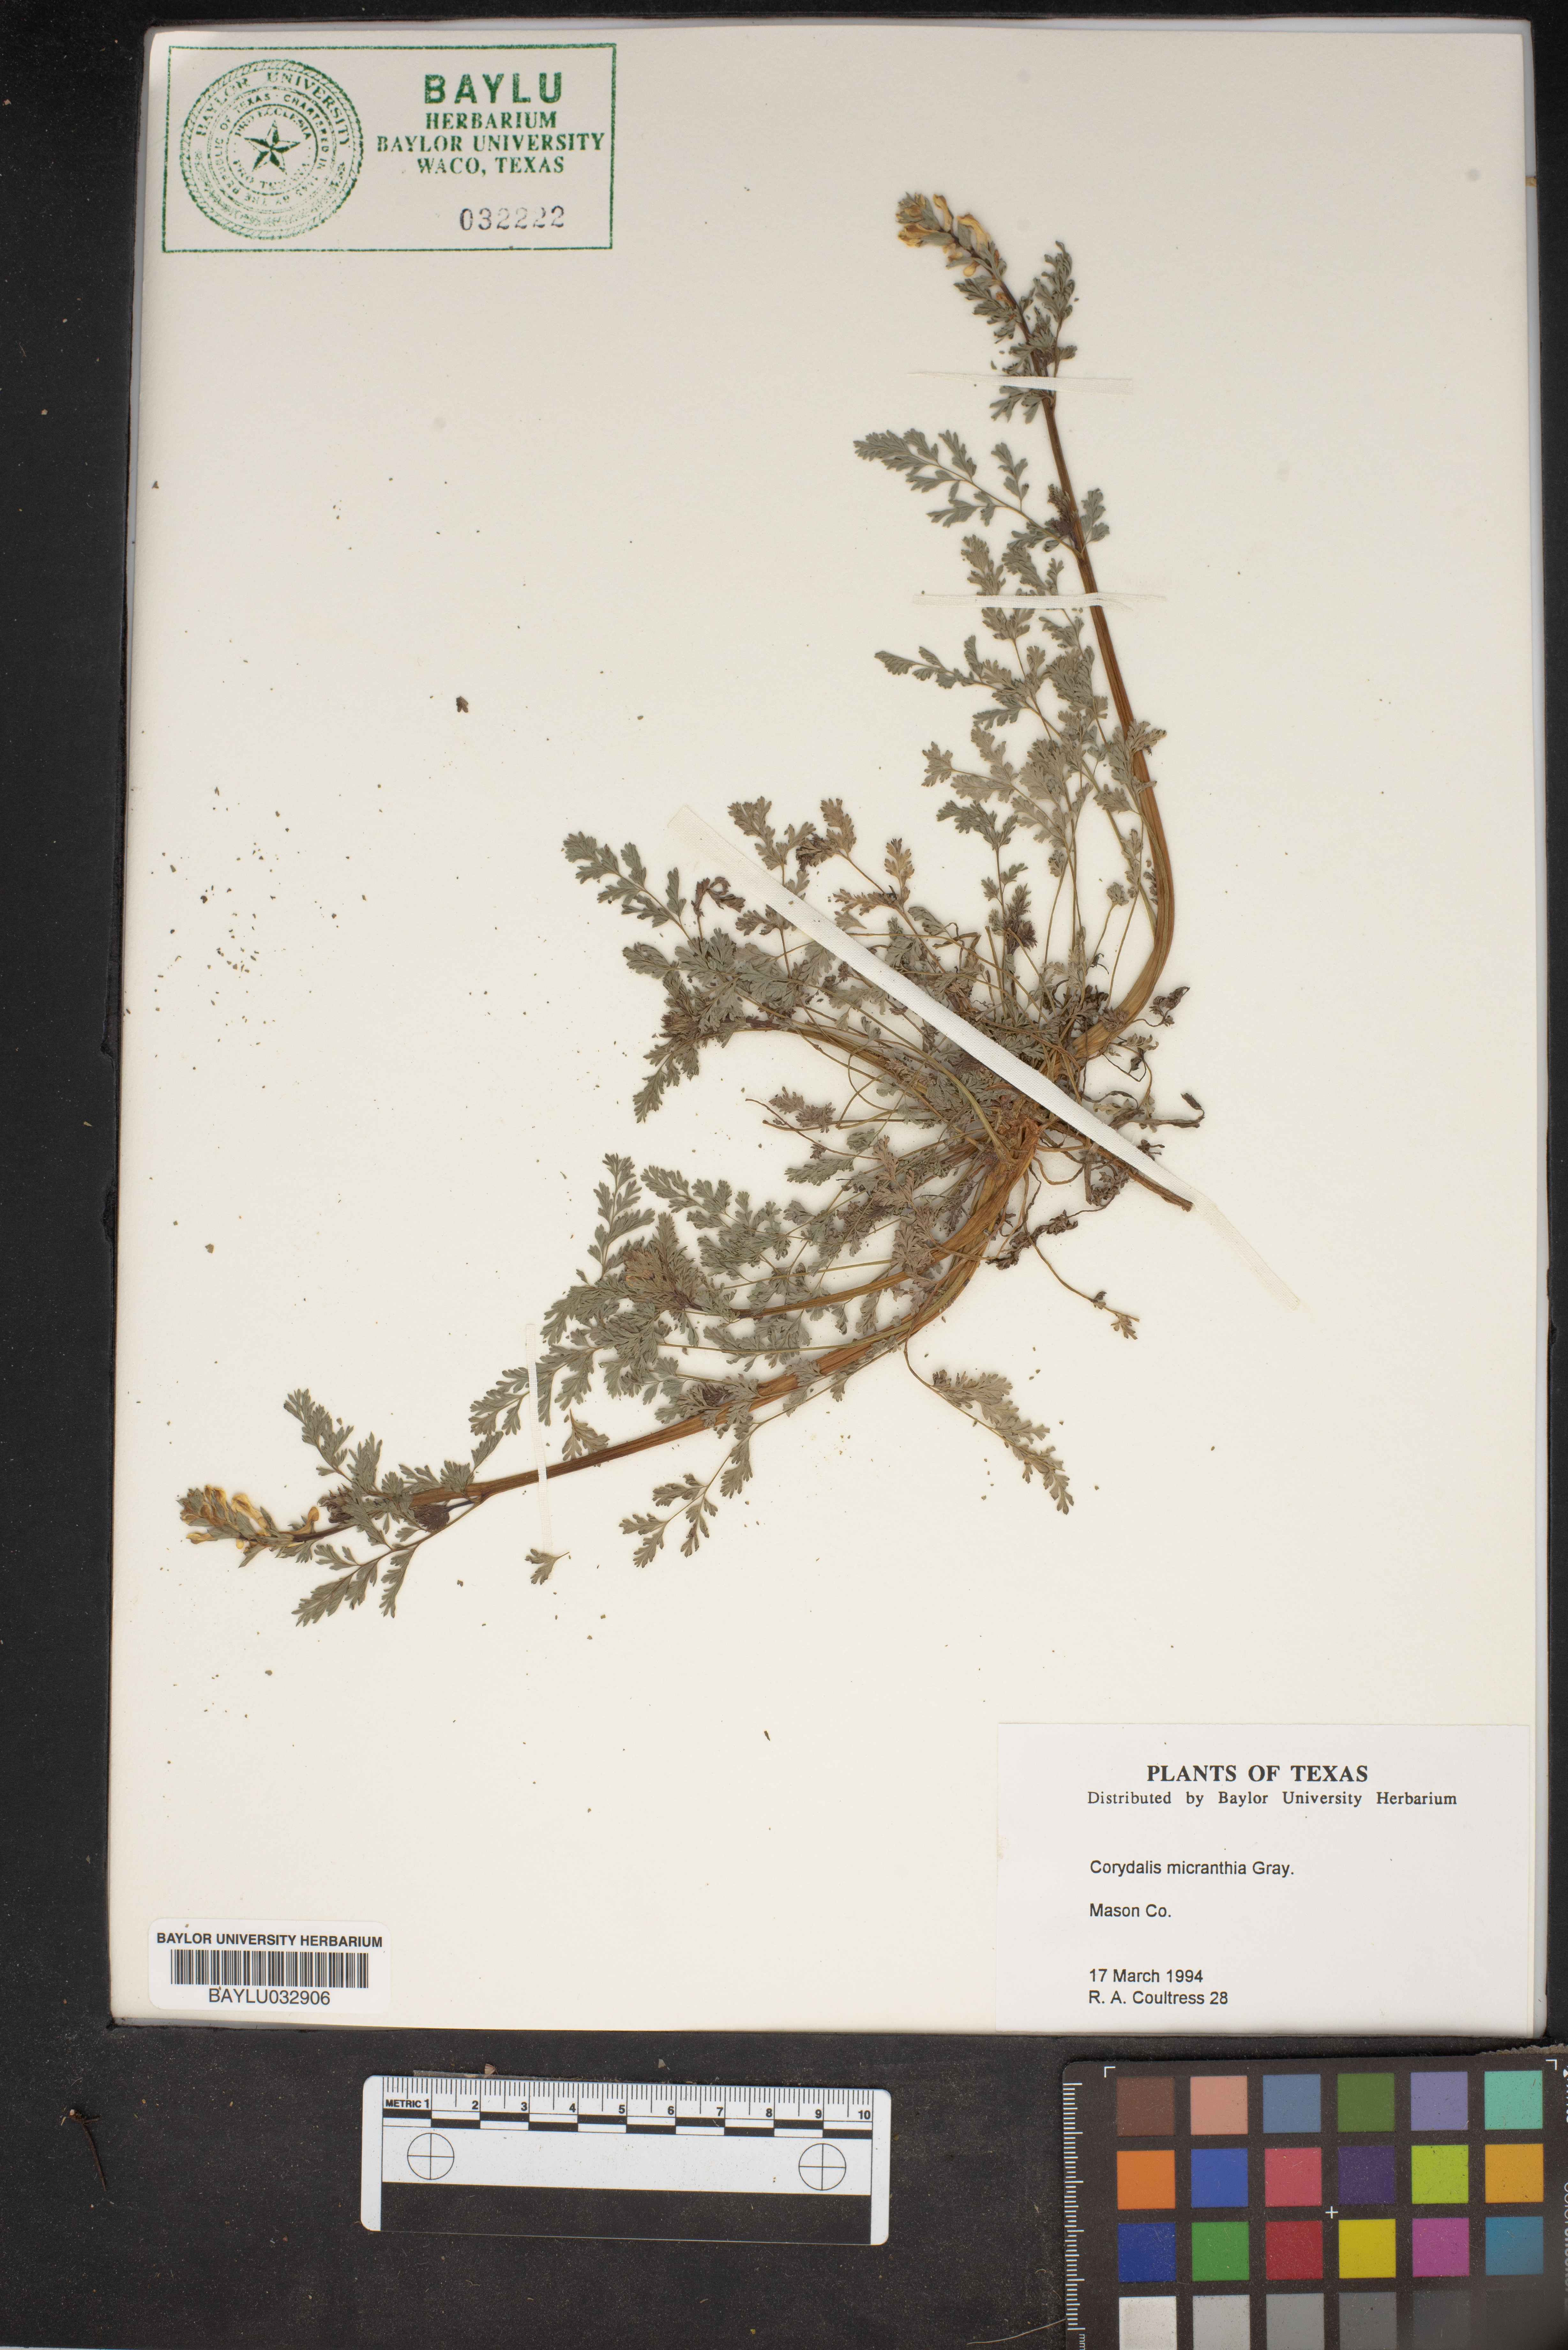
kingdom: Plantae
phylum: Tracheophyta
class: Magnoliopsida
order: Ranunculales
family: Papaveraceae
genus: Corydalis
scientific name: Corydalis micrantha
